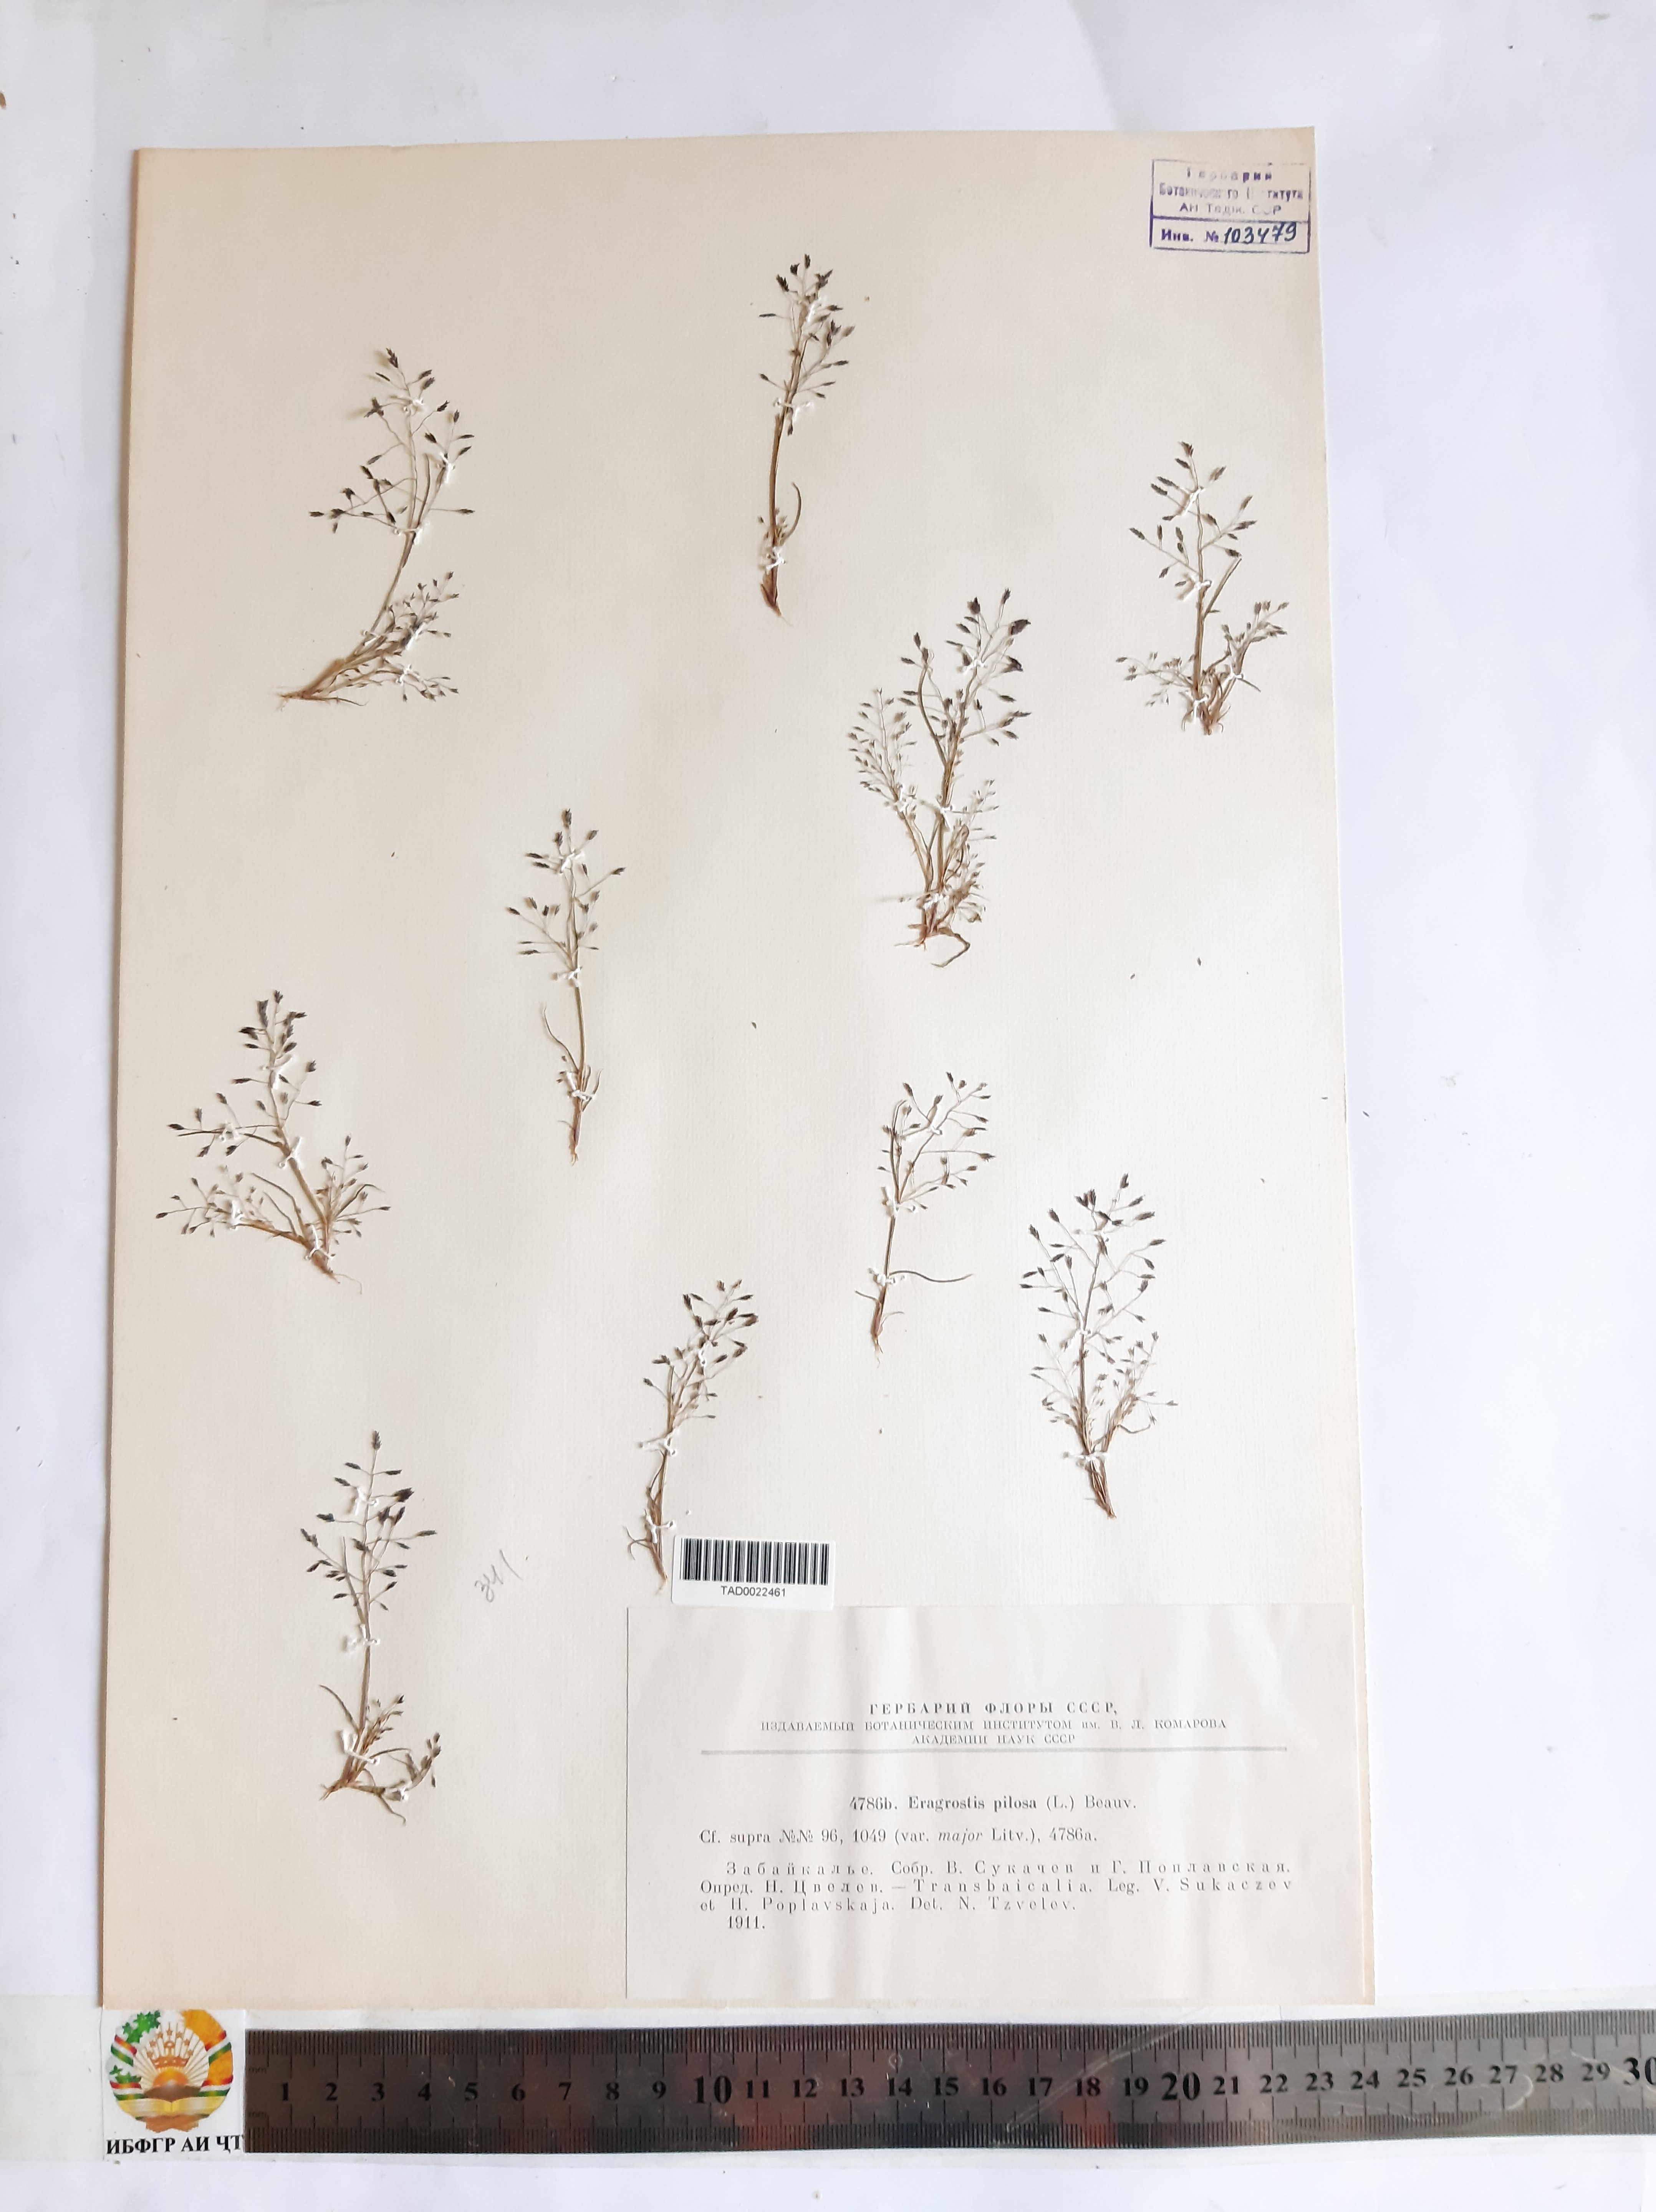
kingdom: Plantae
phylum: Tracheophyta
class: Liliopsida
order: Poales
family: Poaceae
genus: Eragrostis
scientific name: Eragrostis pilosa
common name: Indian lovegrass
